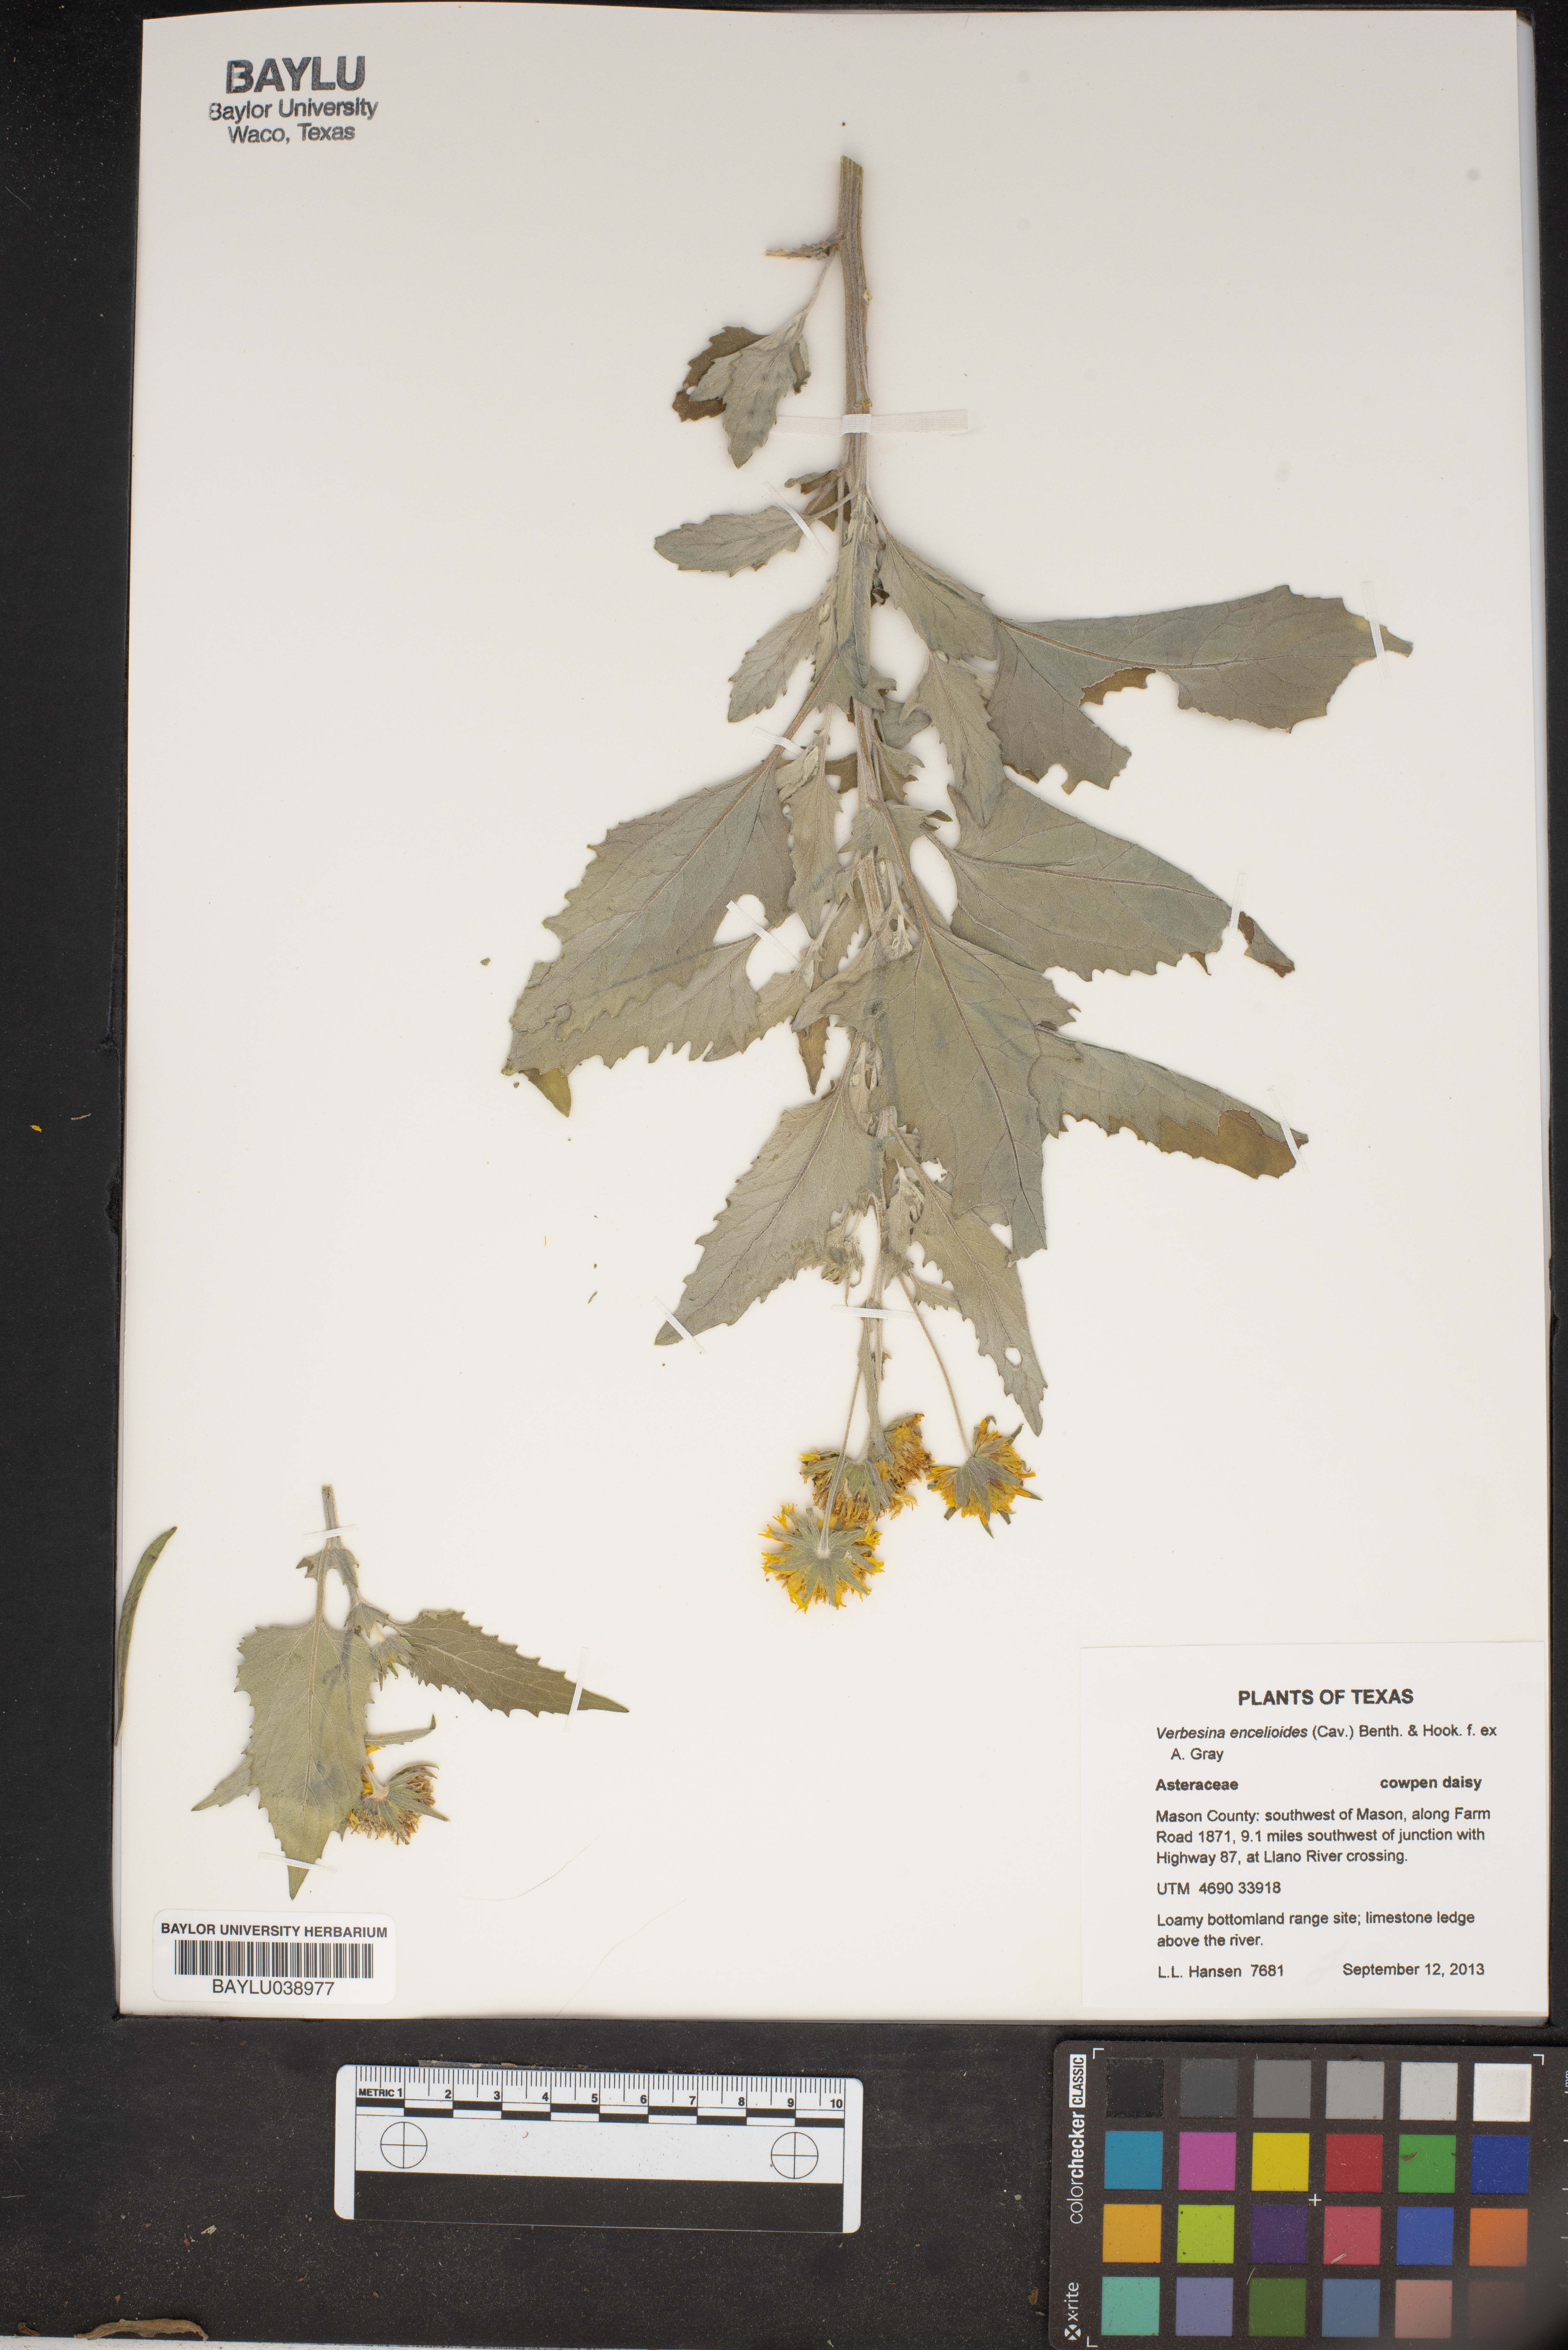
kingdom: Plantae
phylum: Tracheophyta
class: Magnoliopsida
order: Asterales
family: Asteraceae
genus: Verbesina
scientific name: Verbesina encelioides
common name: Golden crownbeard
